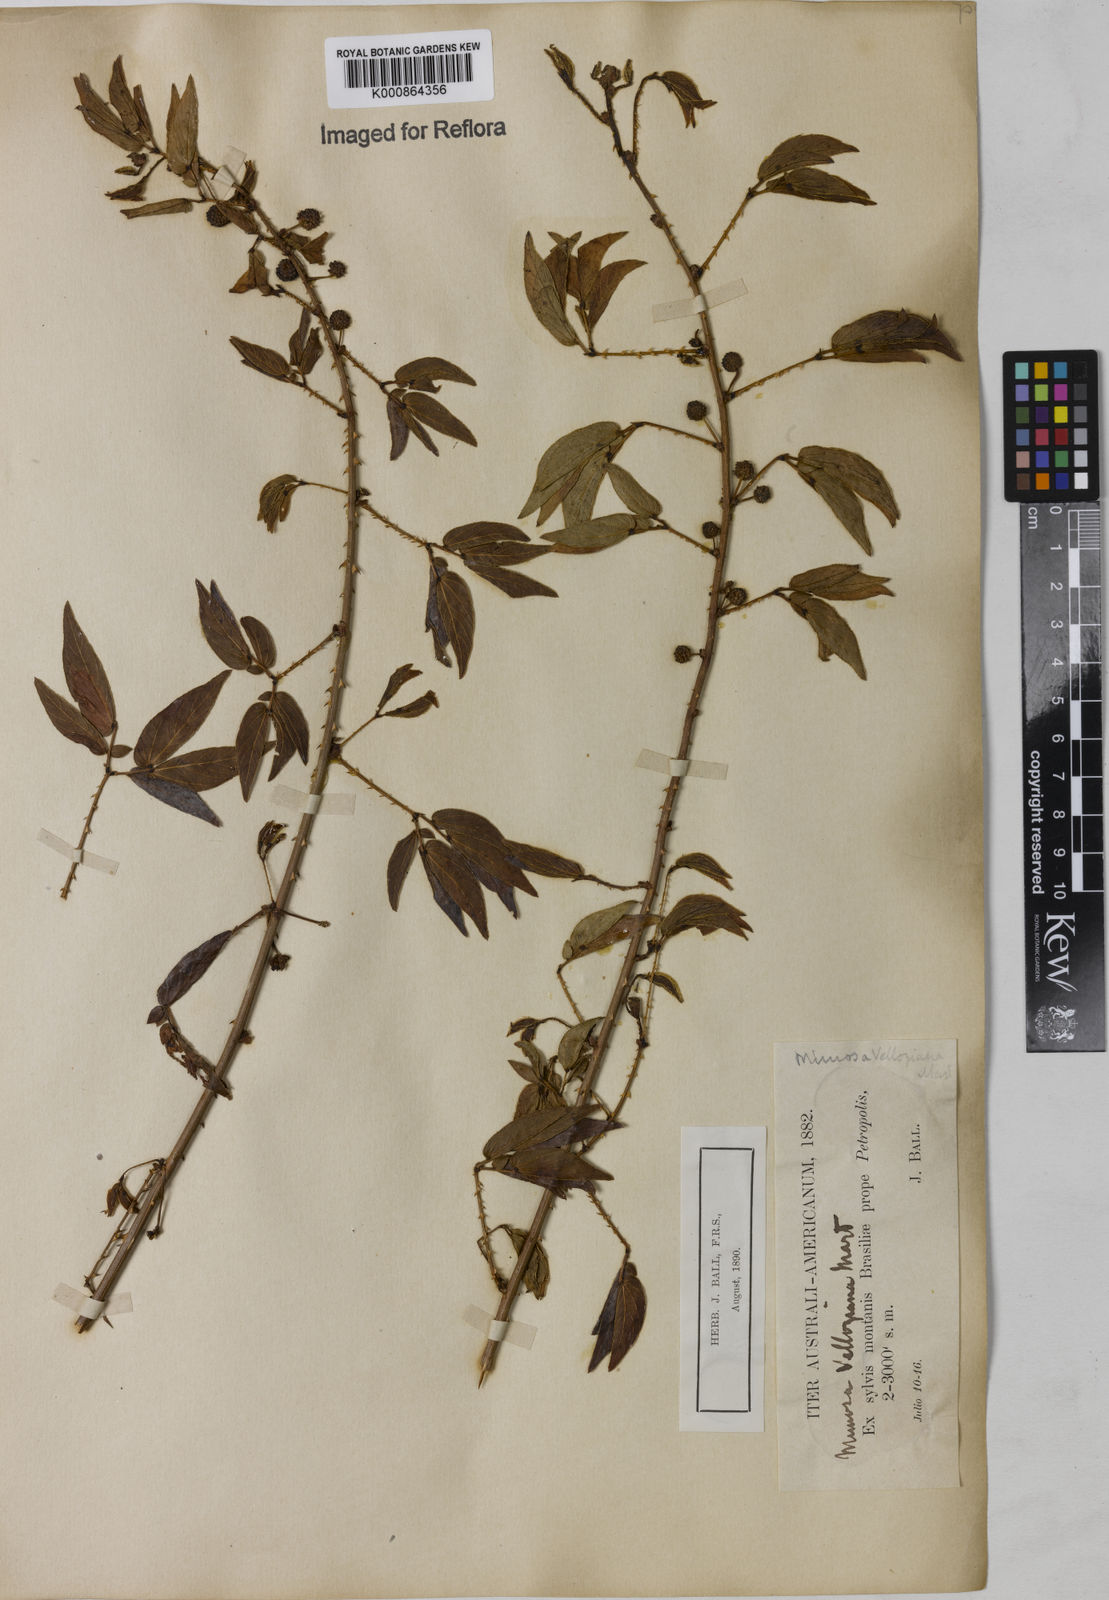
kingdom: Plantae
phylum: Tracheophyta
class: Magnoliopsida
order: Fabales
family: Fabaceae
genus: Mimosa
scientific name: Mimosa velloziana
